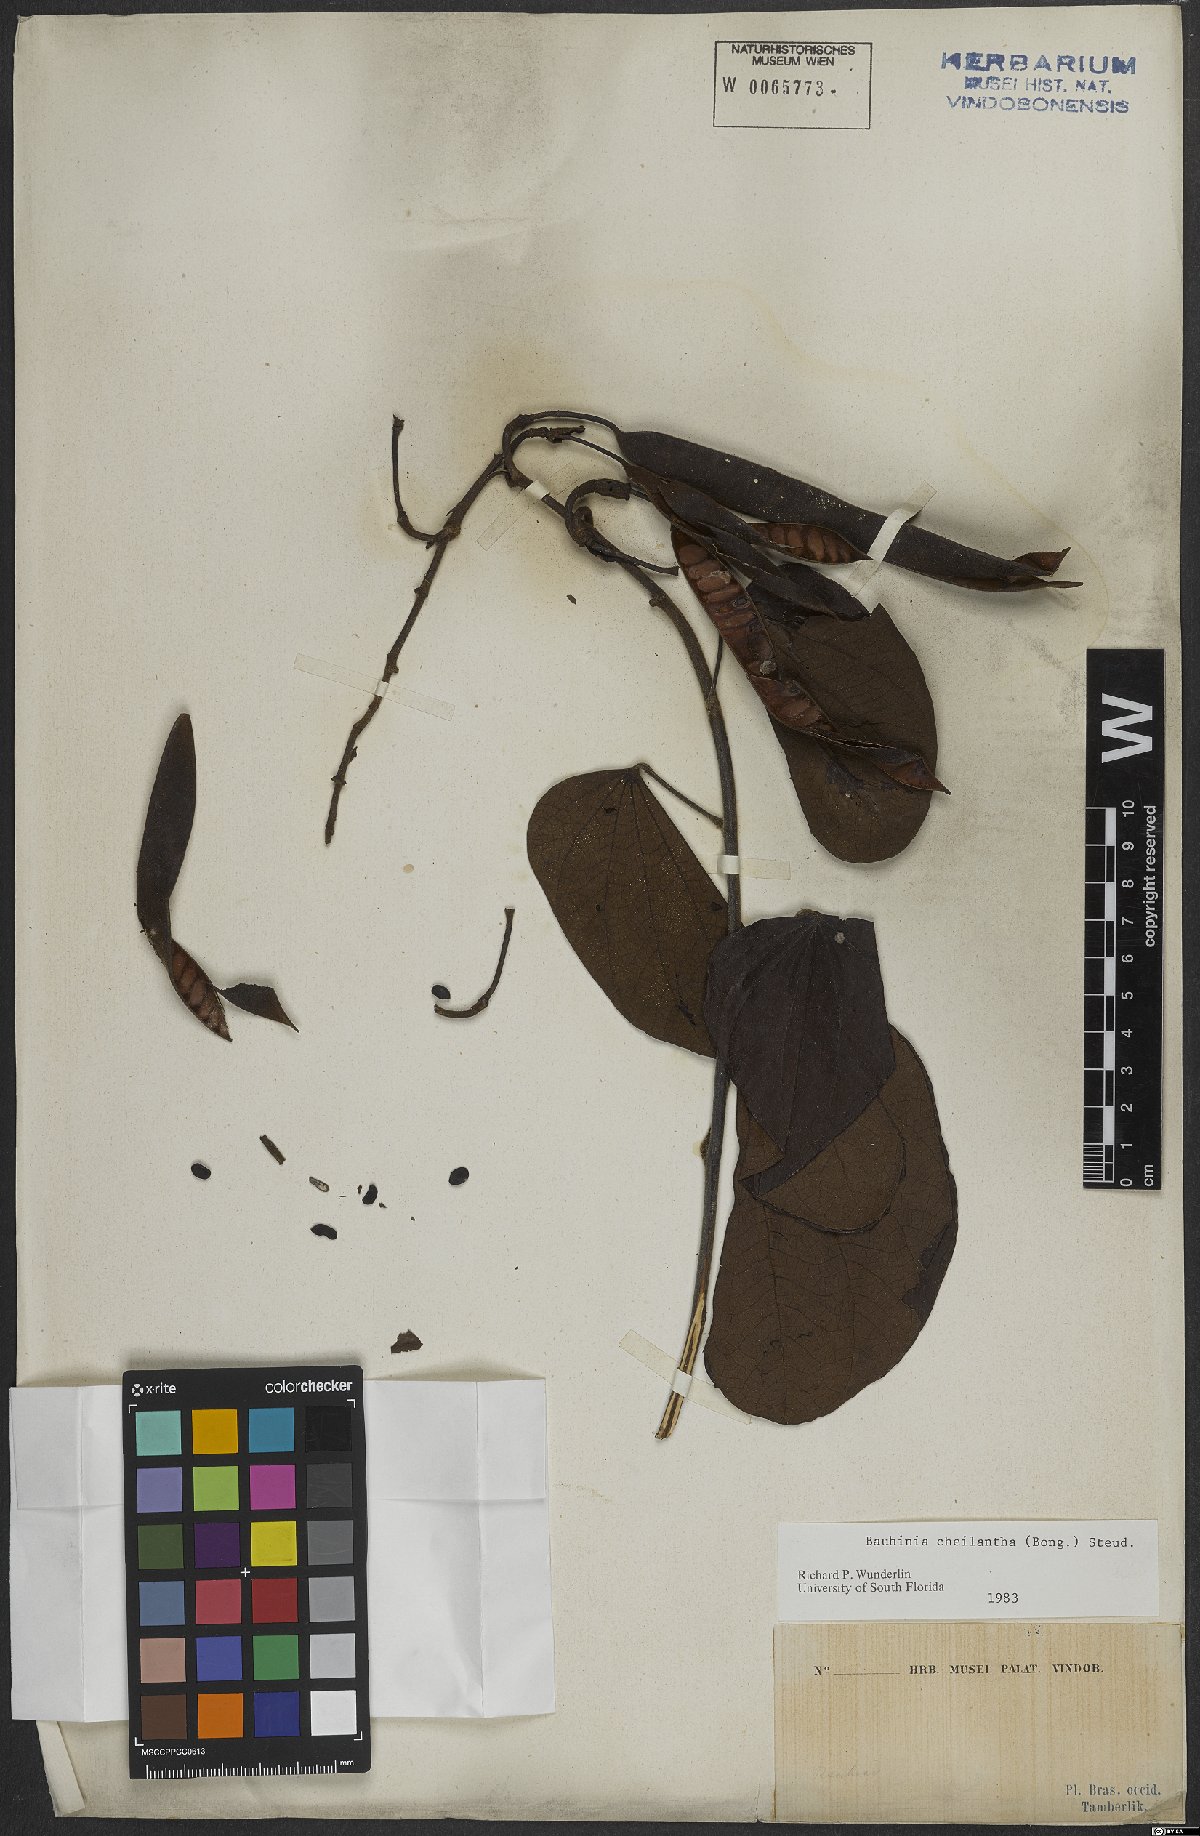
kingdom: Plantae
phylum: Tracheophyta
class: Magnoliopsida
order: Fabales
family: Fabaceae
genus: Bauhinia
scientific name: Bauhinia cheilantha
